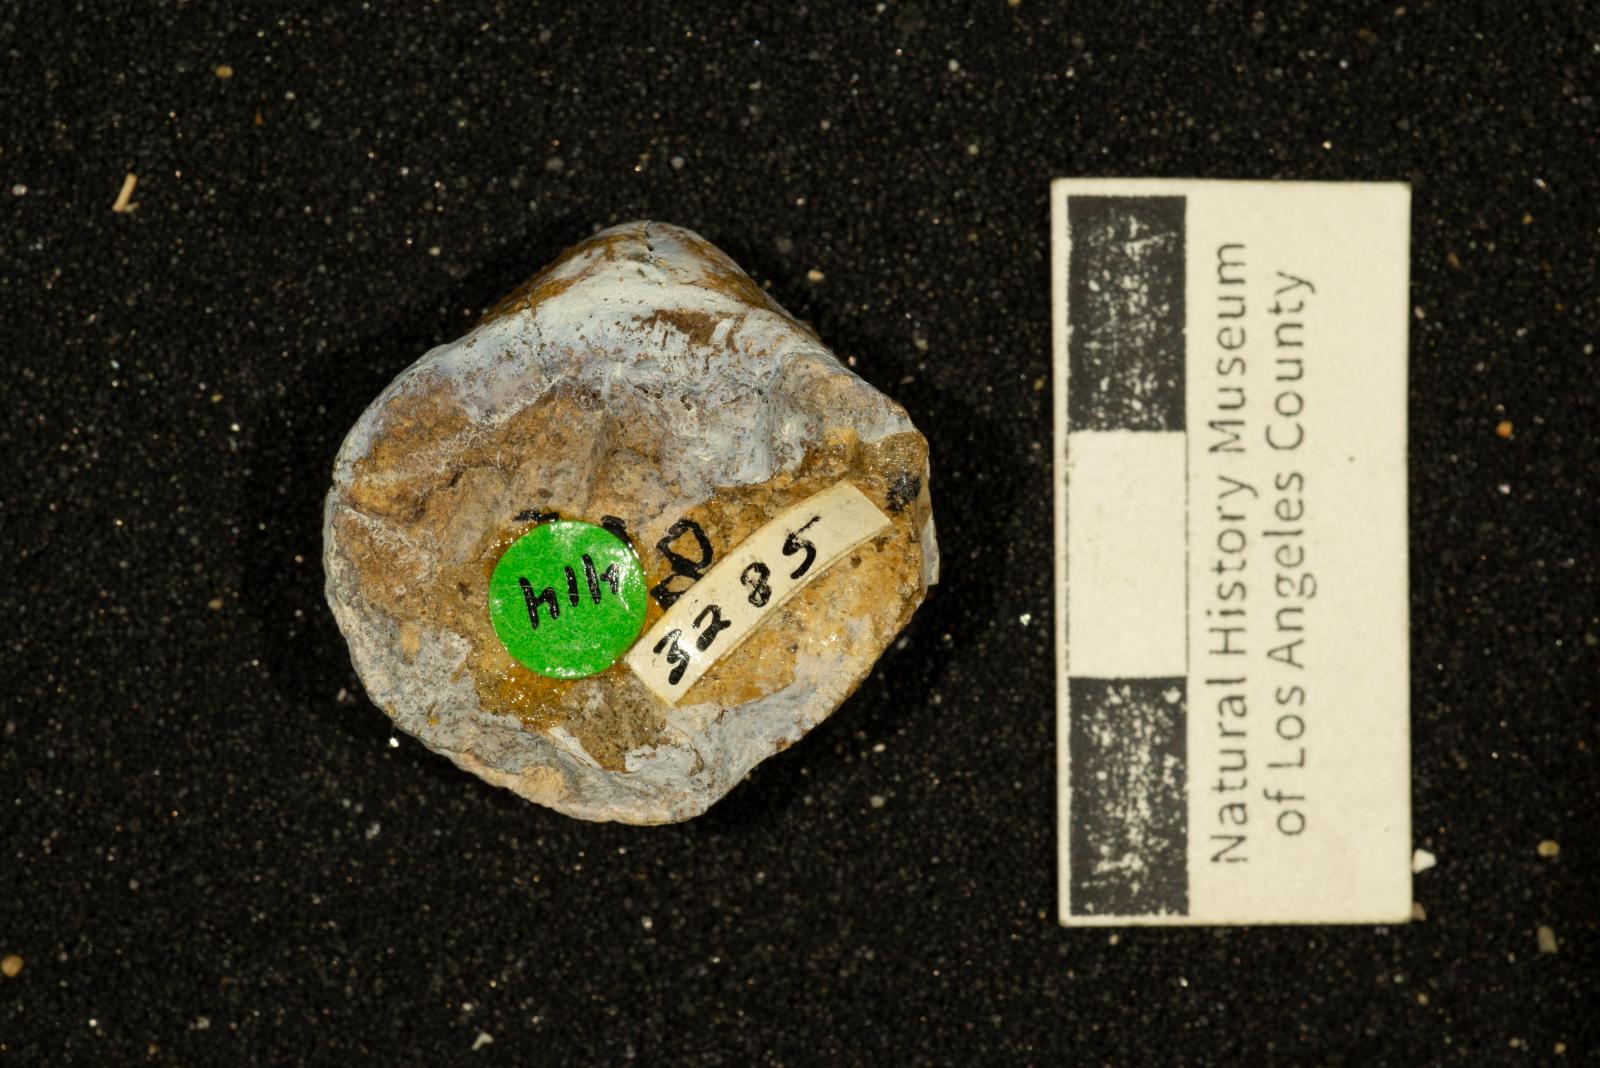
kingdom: Animalia
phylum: Mollusca
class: Bivalvia
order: Arcida
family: Glycymerididae
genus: Glycymerita
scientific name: Glycymerita Axinaea veatchii
